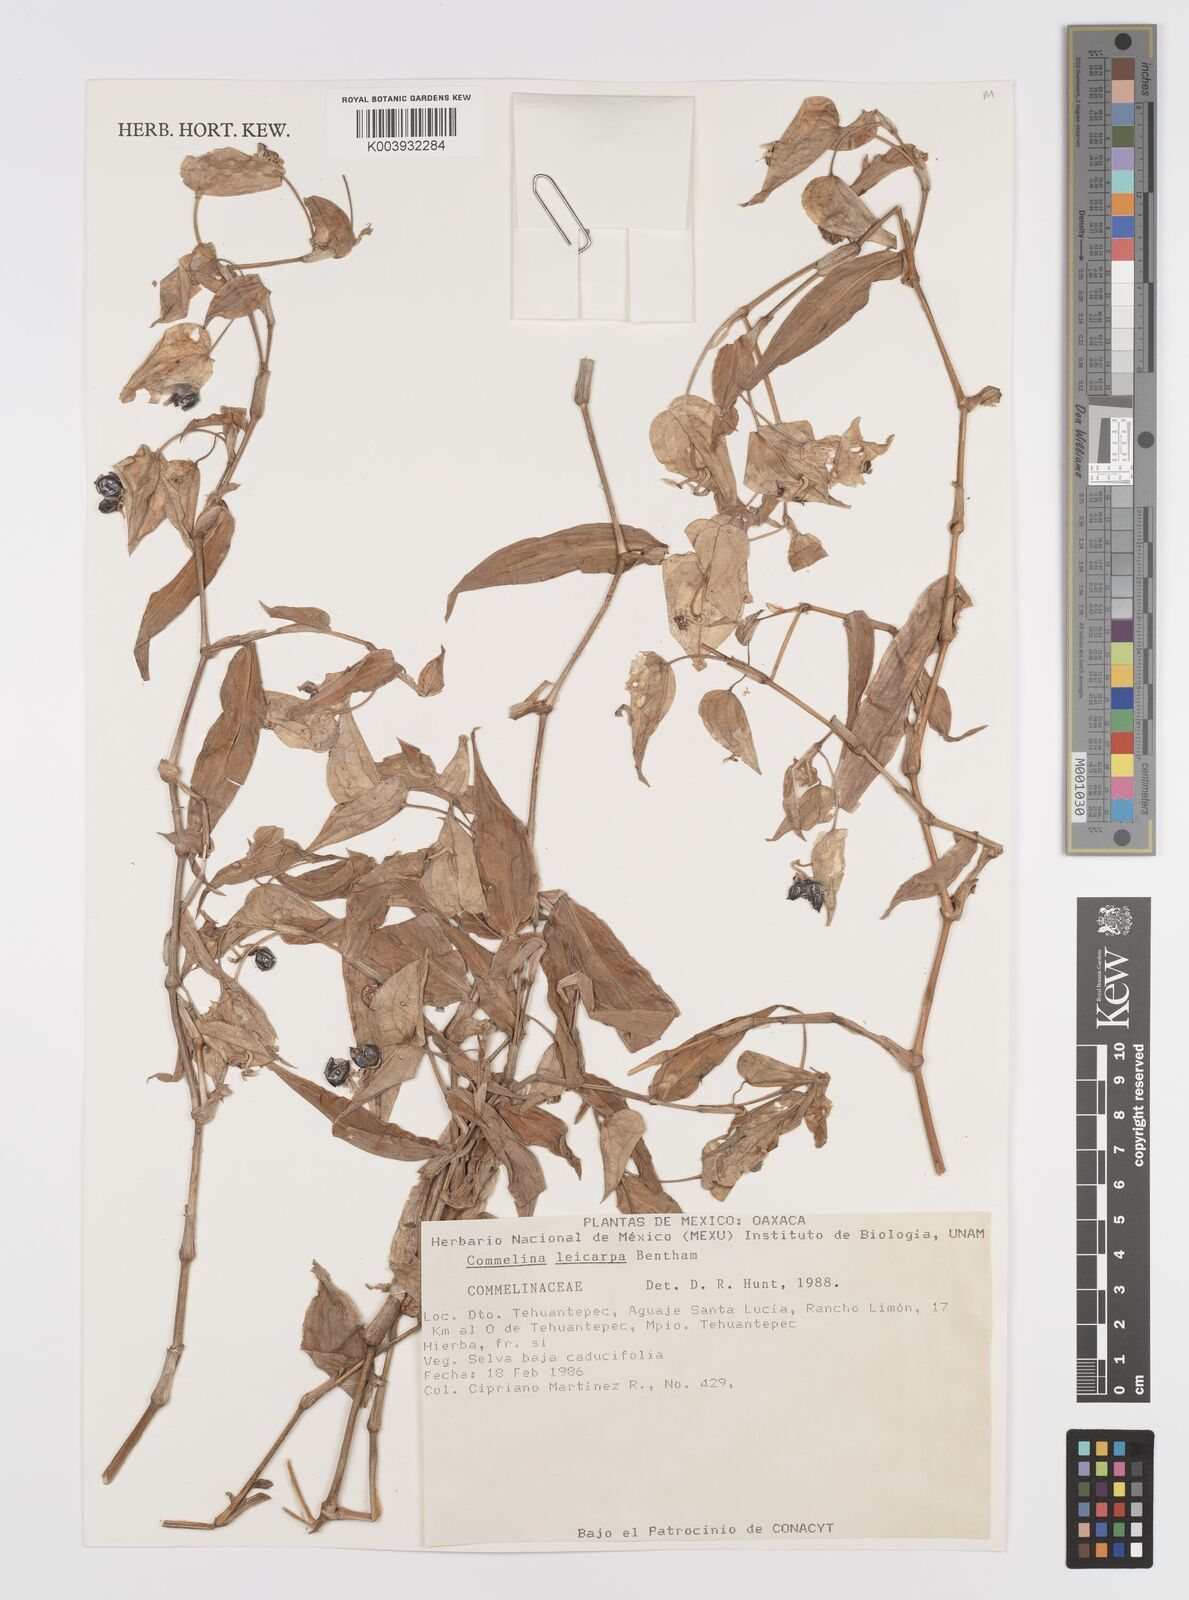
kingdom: Plantae
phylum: Tracheophyta
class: Liliopsida
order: Commelinales
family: Commelinaceae
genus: Commelina
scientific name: Commelina leiocarpa
